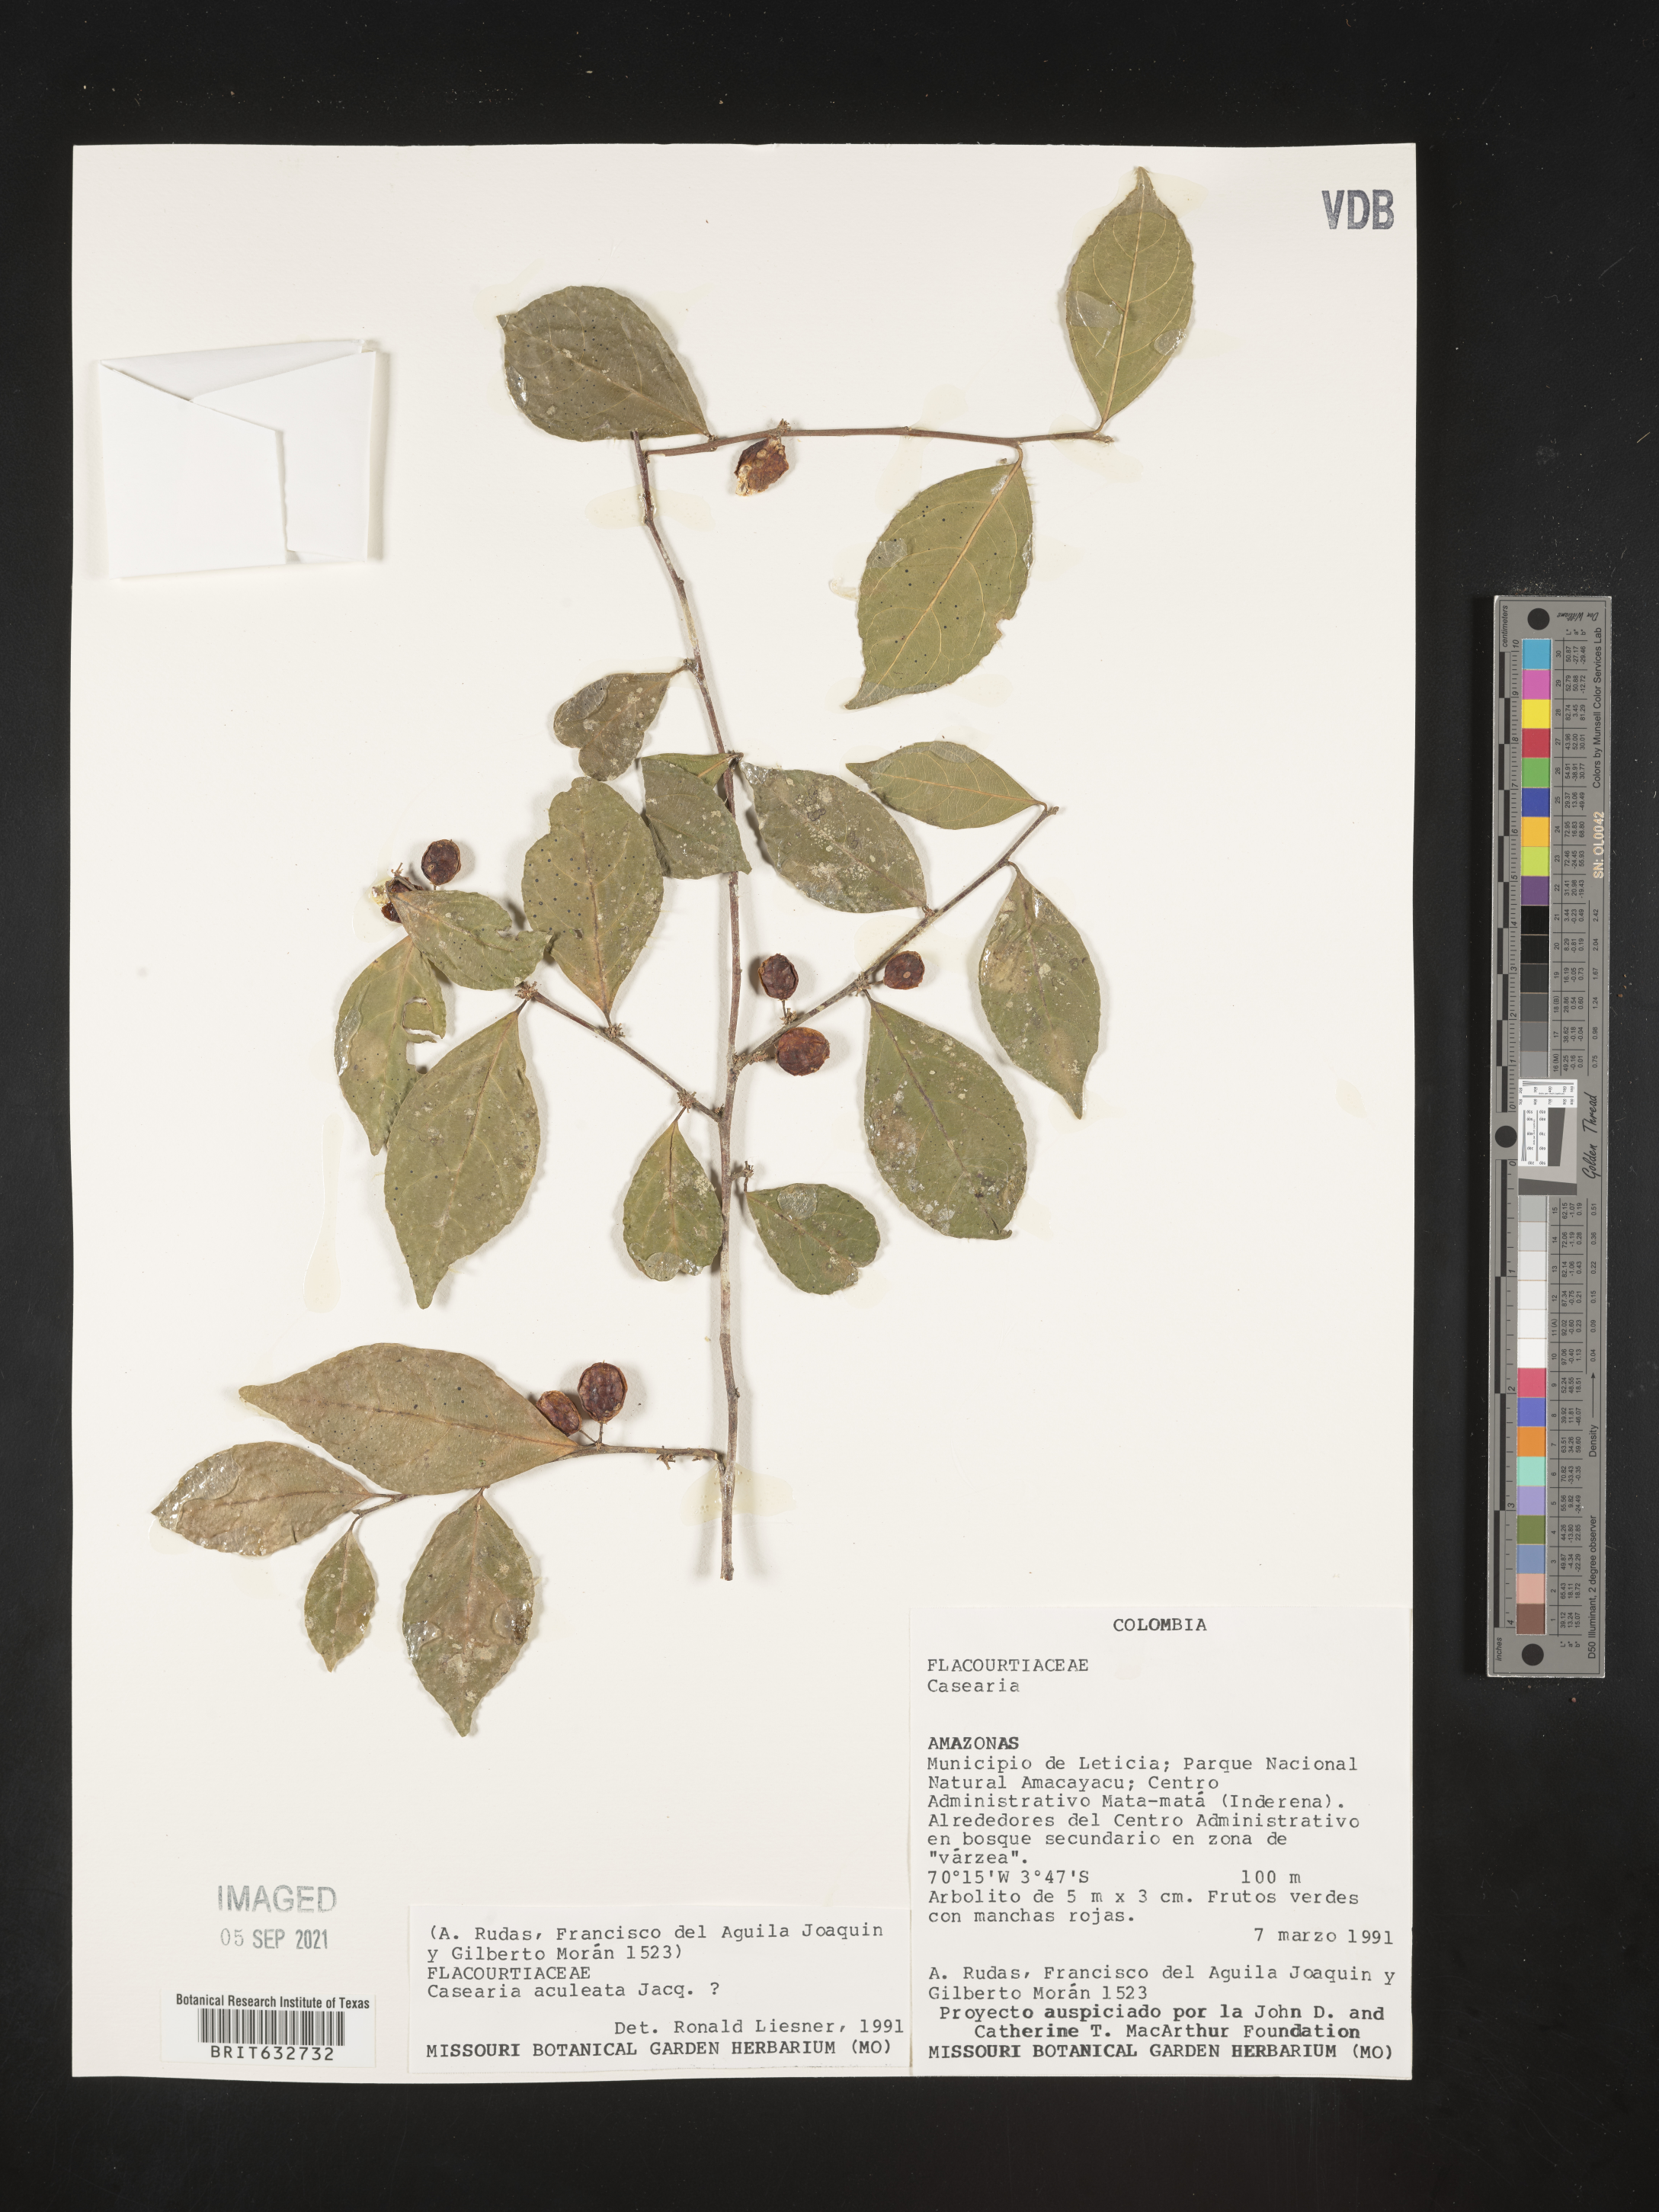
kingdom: Plantae
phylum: Tracheophyta
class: Magnoliopsida
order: Malpighiales
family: Salicaceae
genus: Casearia
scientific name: Casearia
